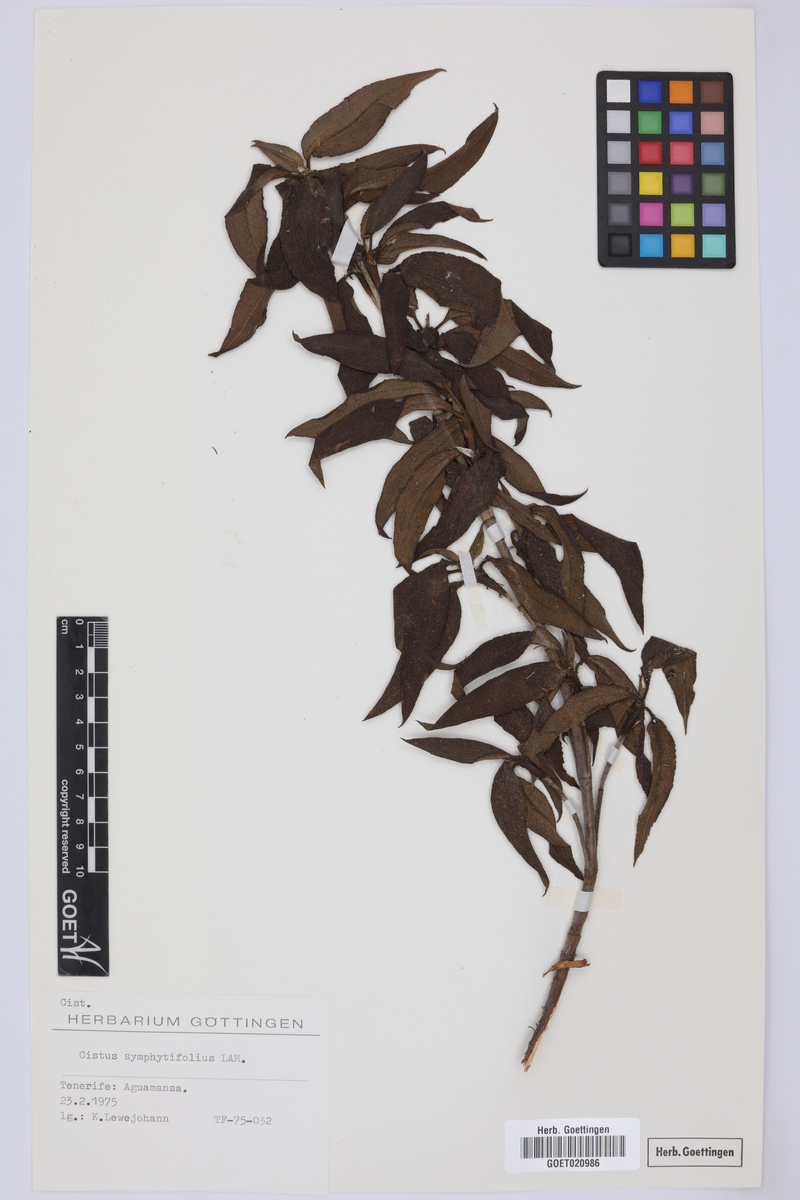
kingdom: Plantae
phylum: Tracheophyta
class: Magnoliopsida
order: Malvales
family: Cistaceae
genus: Cistus
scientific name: Cistus symphytifolius
